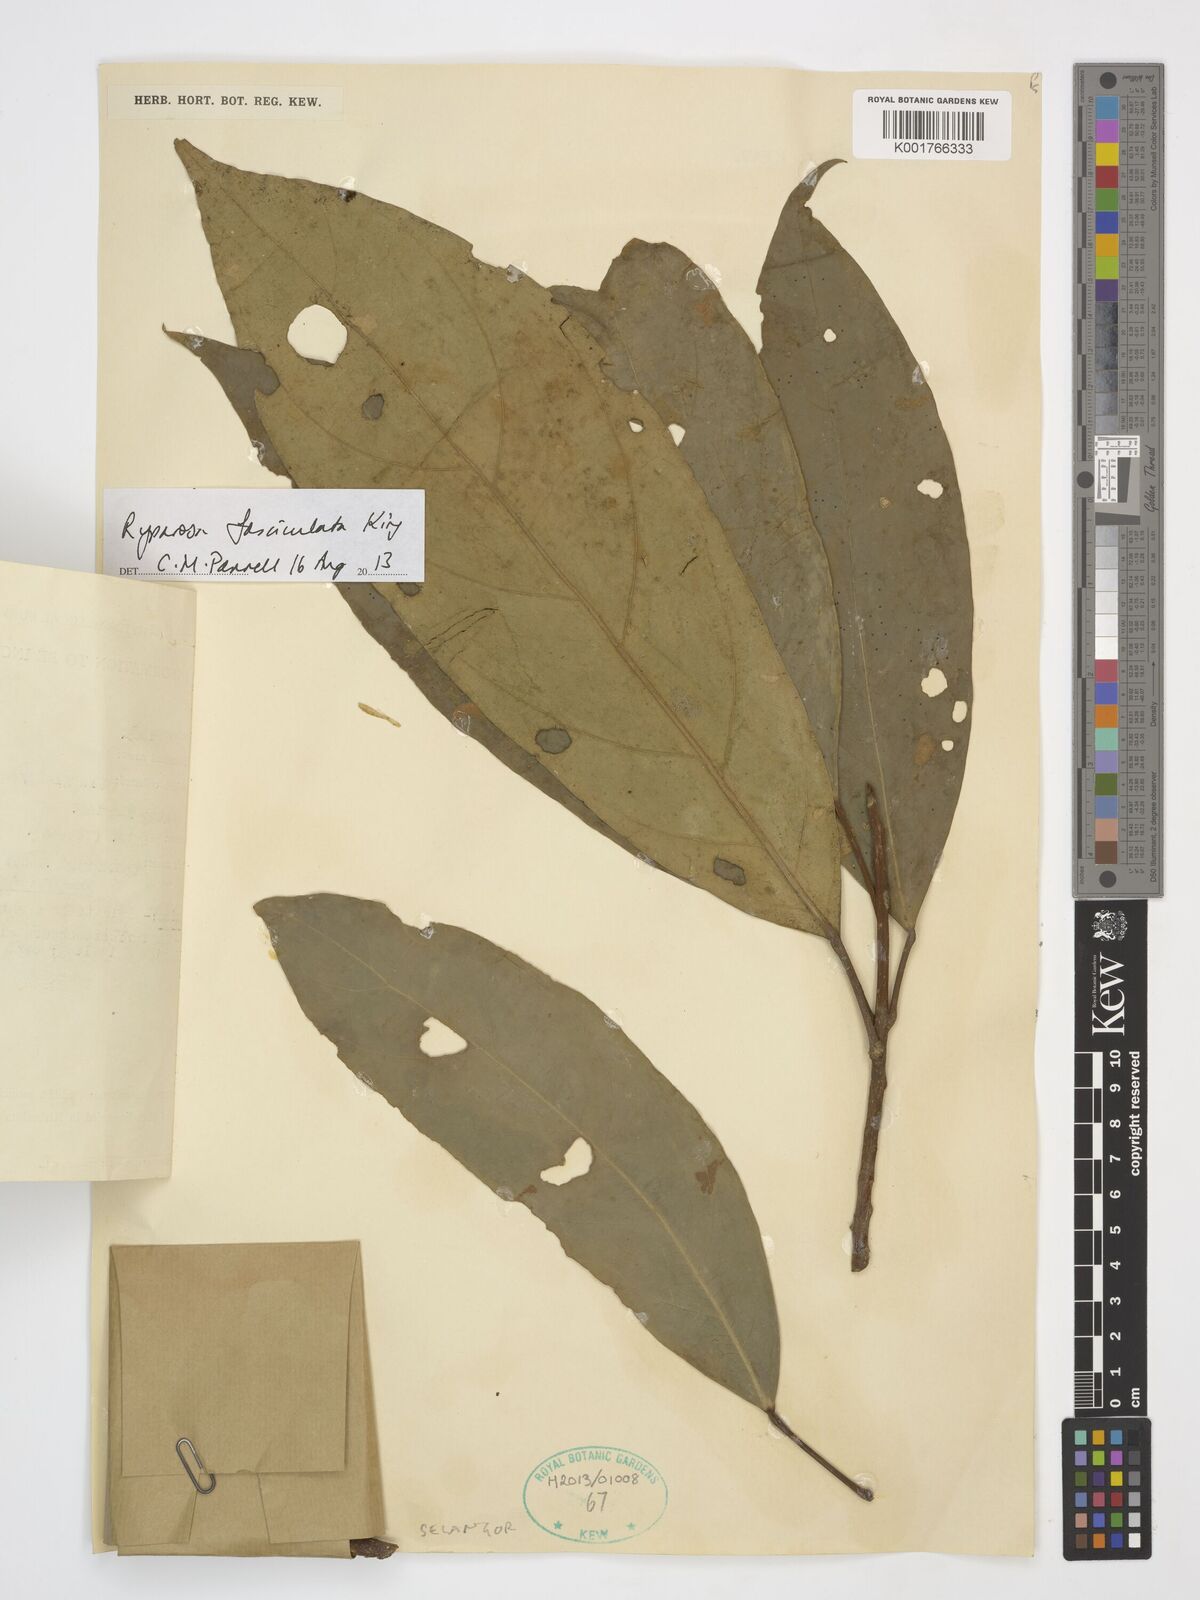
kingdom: Plantae
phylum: Tracheophyta
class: Magnoliopsida
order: Malpighiales
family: Achariaceae
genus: Ryparosa
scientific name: Ryparosa fasciculata
